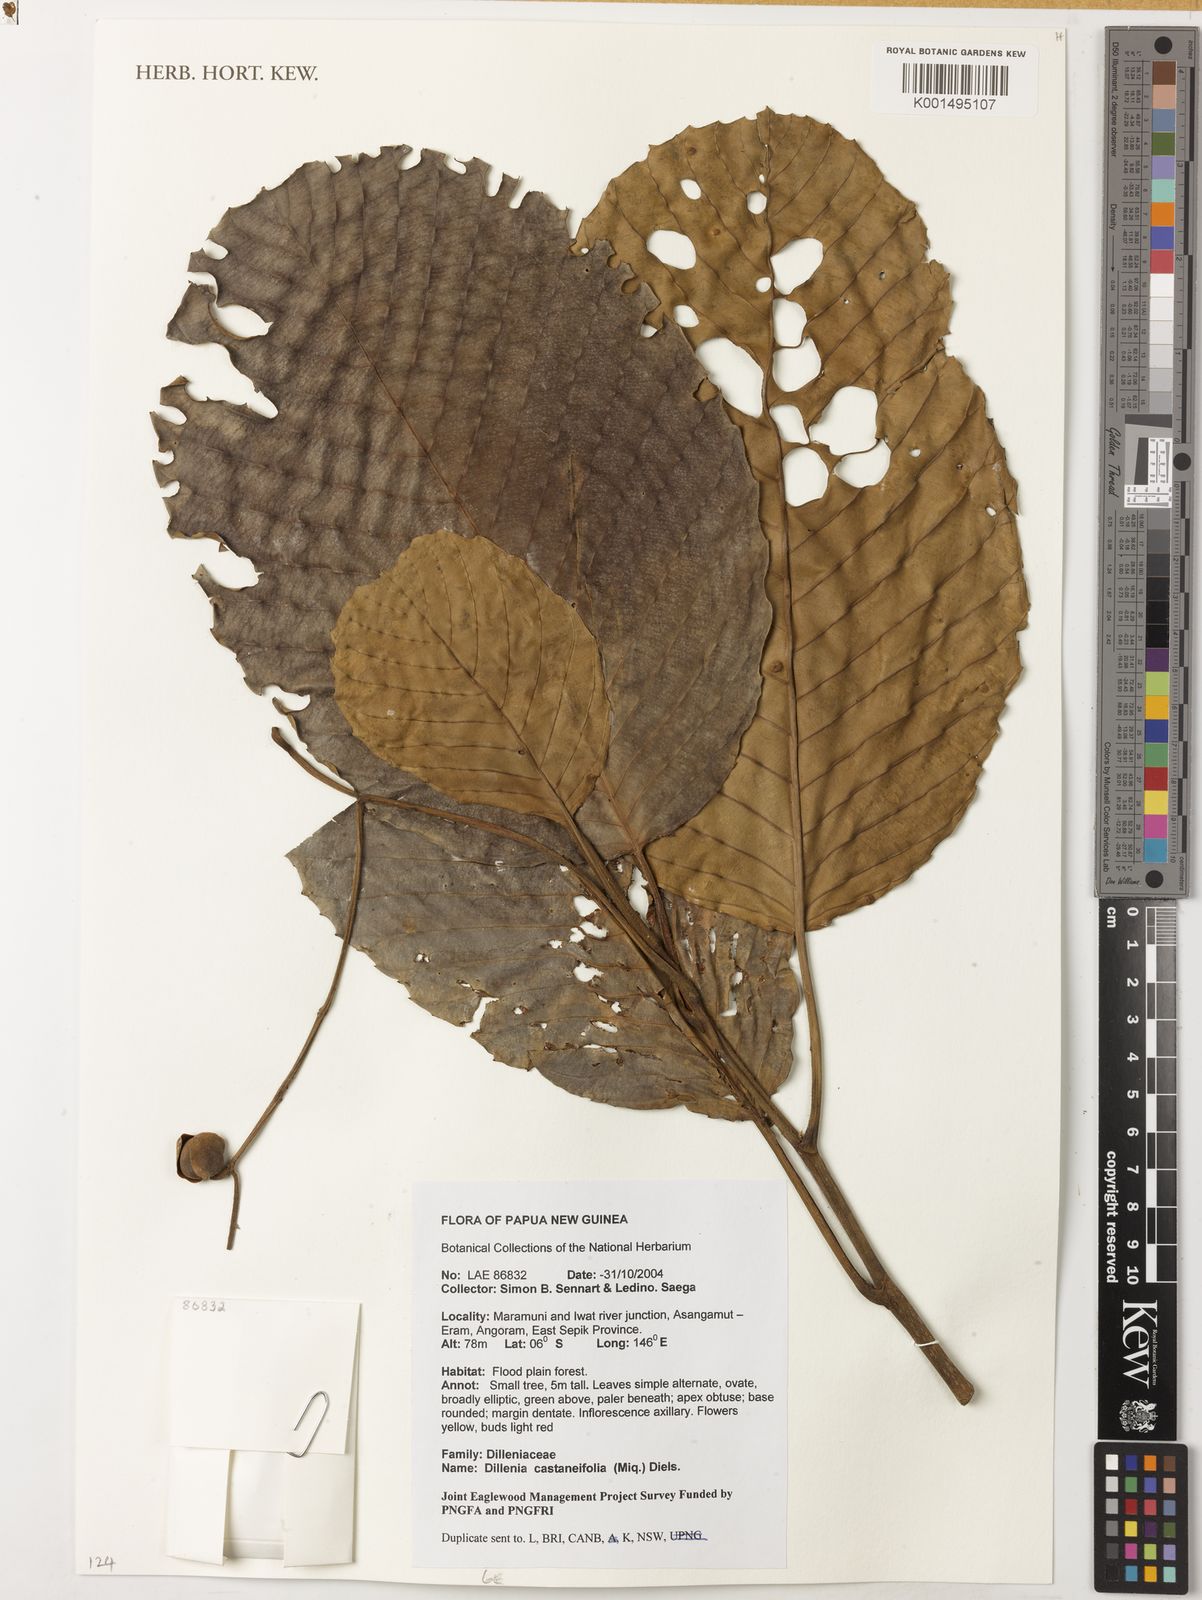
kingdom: Plantae
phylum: Tracheophyta
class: Magnoliopsida
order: Dilleniales
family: Dilleniaceae
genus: Dillenia
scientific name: Dillenia castaneifolia
